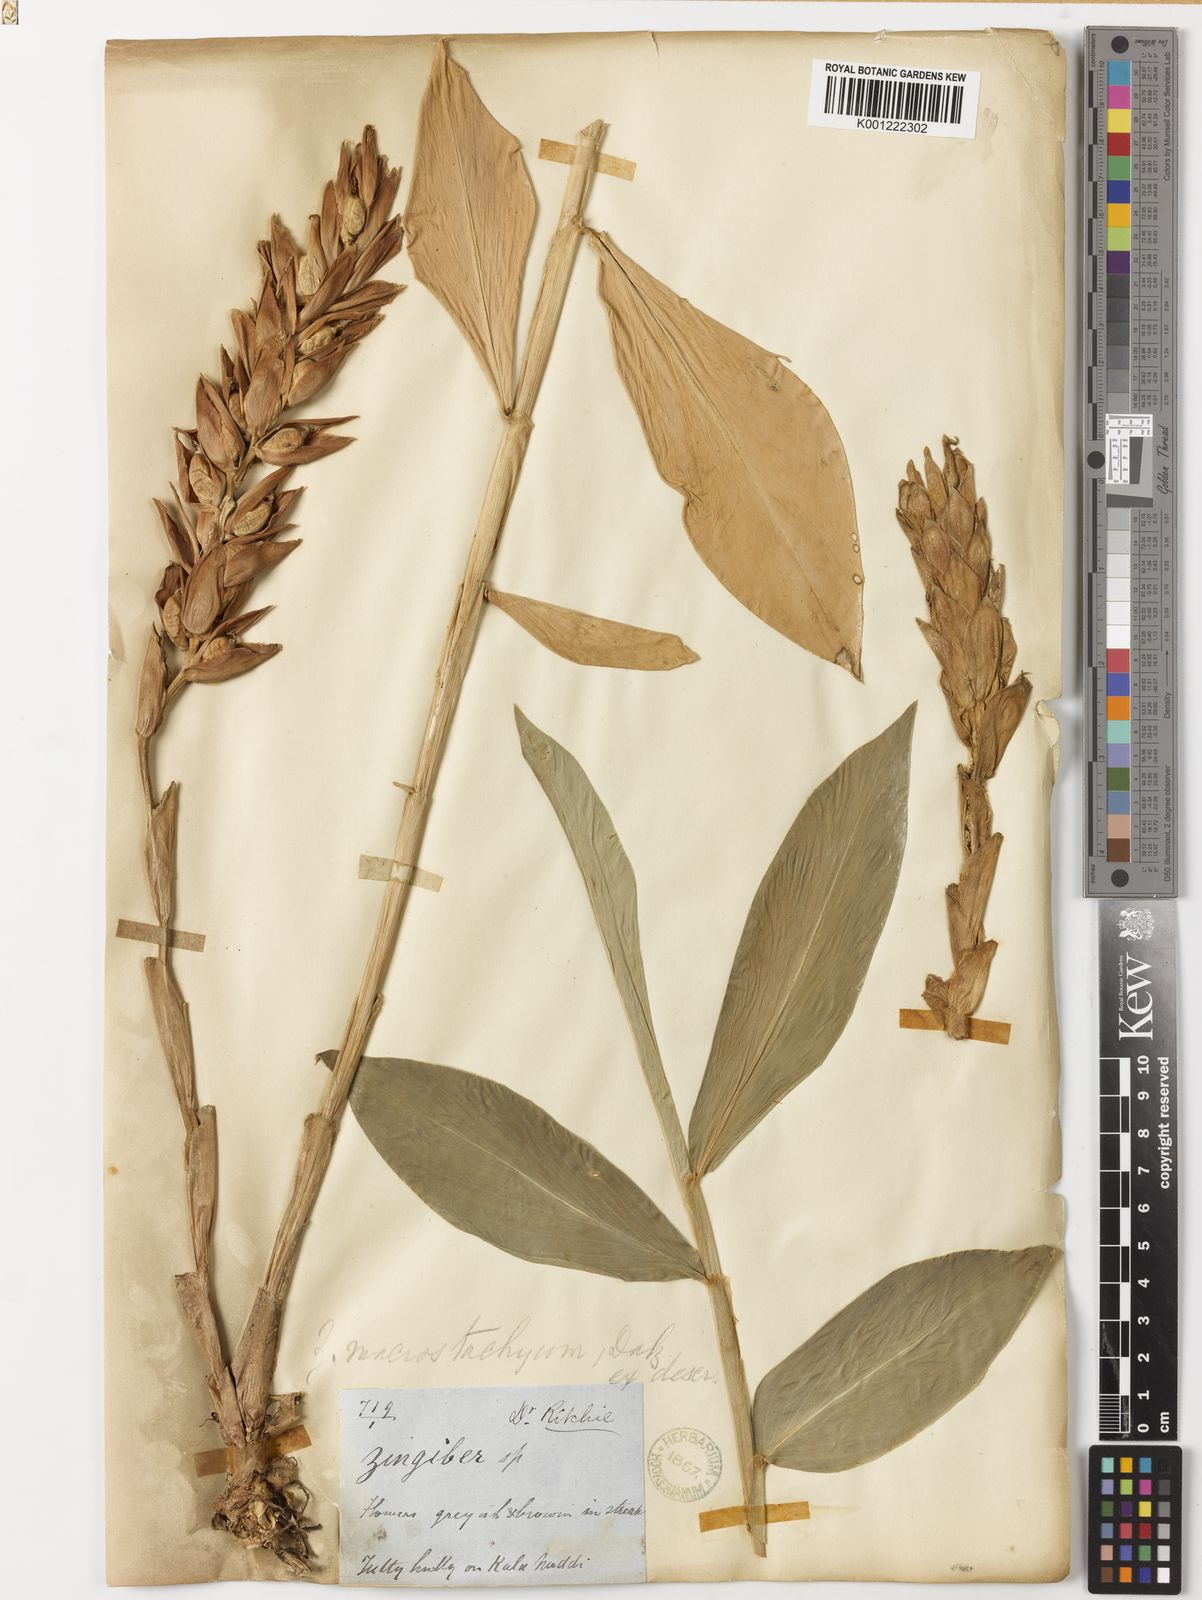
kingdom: Plantae
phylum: Tracheophyta
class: Liliopsida
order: Zingiberales
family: Zingiberaceae
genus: Zingiber
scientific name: Zingiber neesanum
